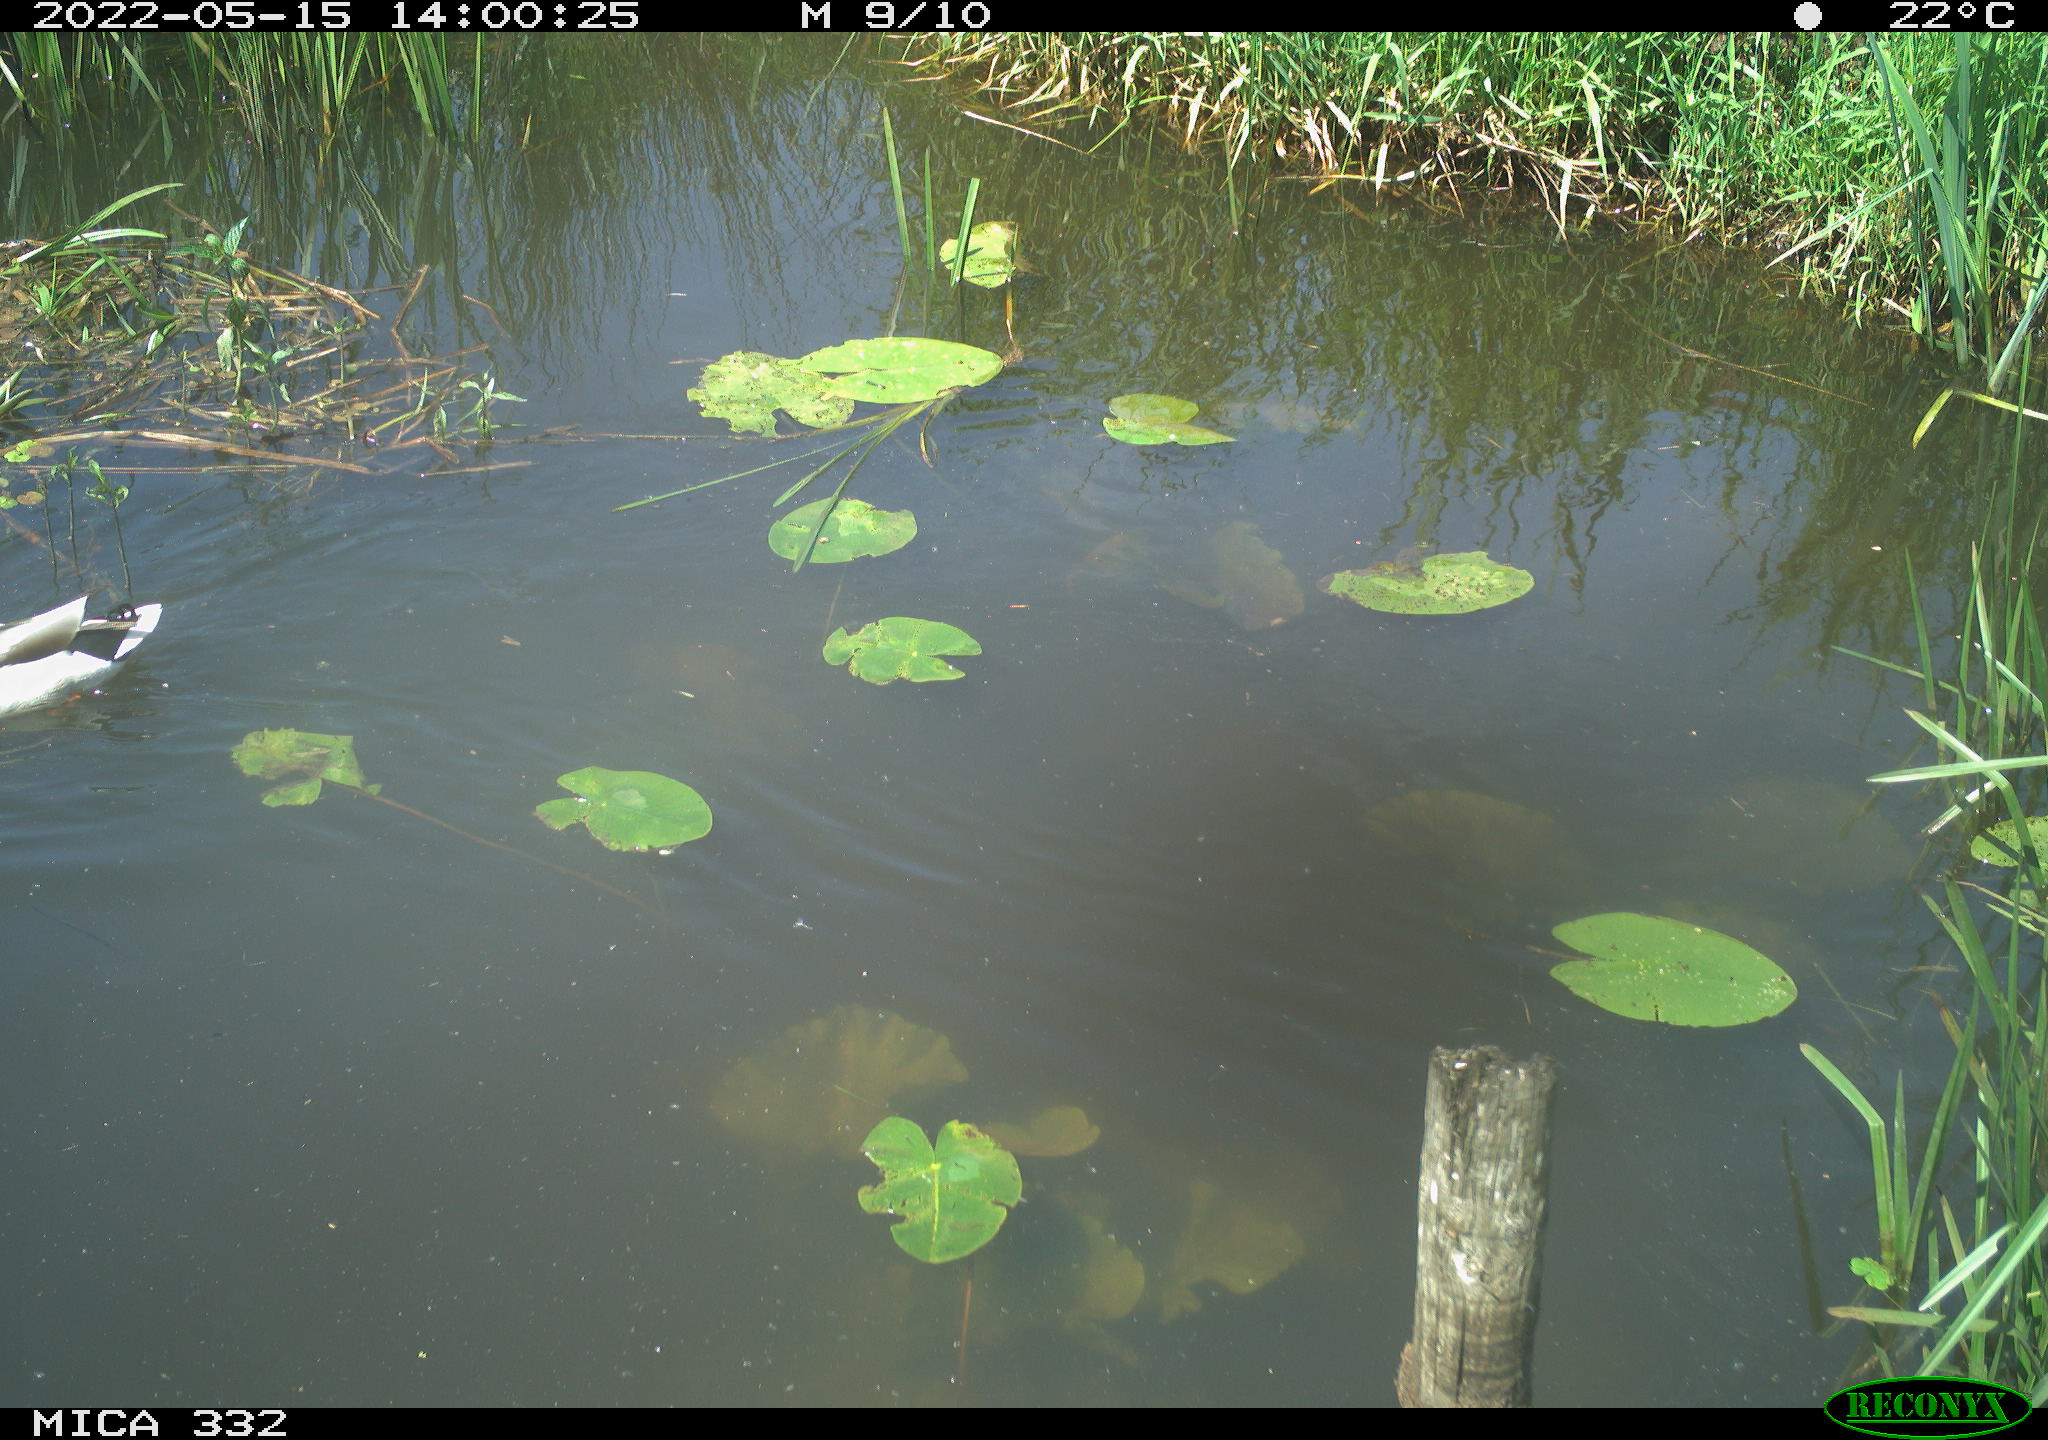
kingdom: Animalia
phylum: Chordata
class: Aves
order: Anseriformes
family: Anatidae
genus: Anas
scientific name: Anas platyrhynchos
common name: Mallard
